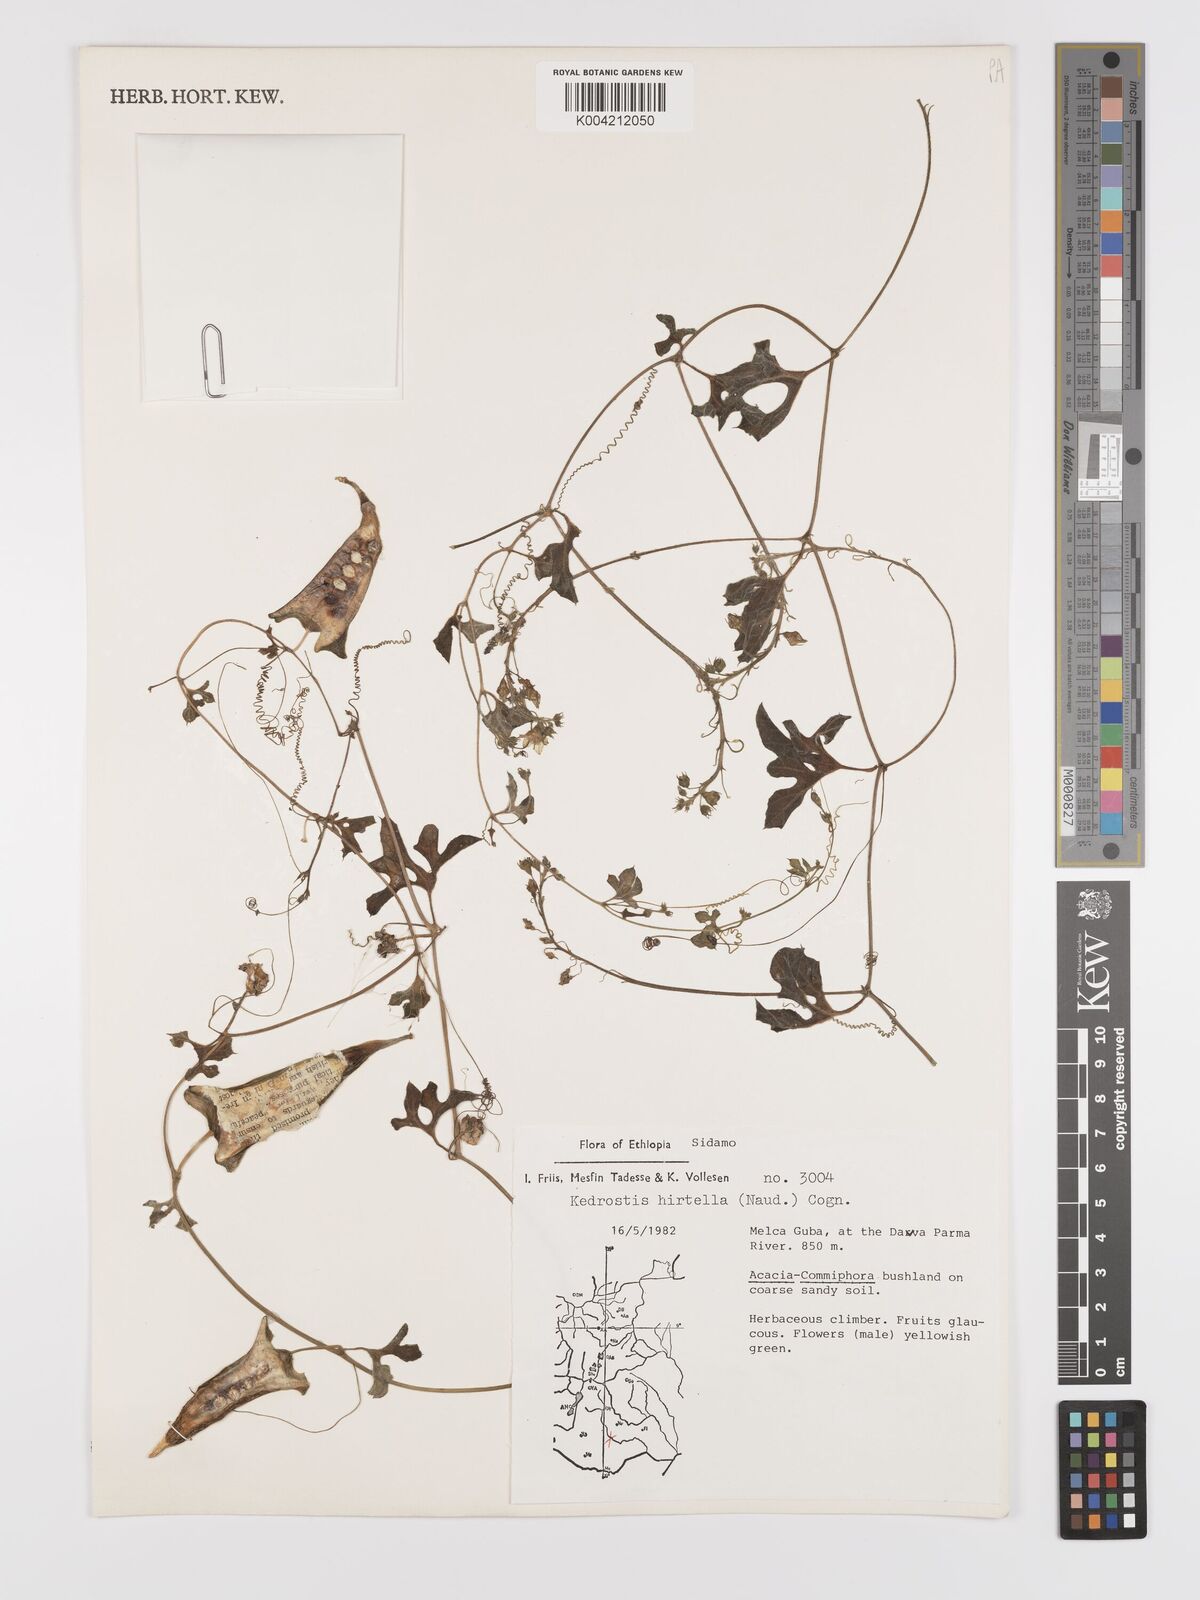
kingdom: Plantae
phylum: Tracheophyta
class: Magnoliopsida
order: Cucurbitales
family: Cucurbitaceae
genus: Kedrostis
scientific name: Kedrostis leloja
